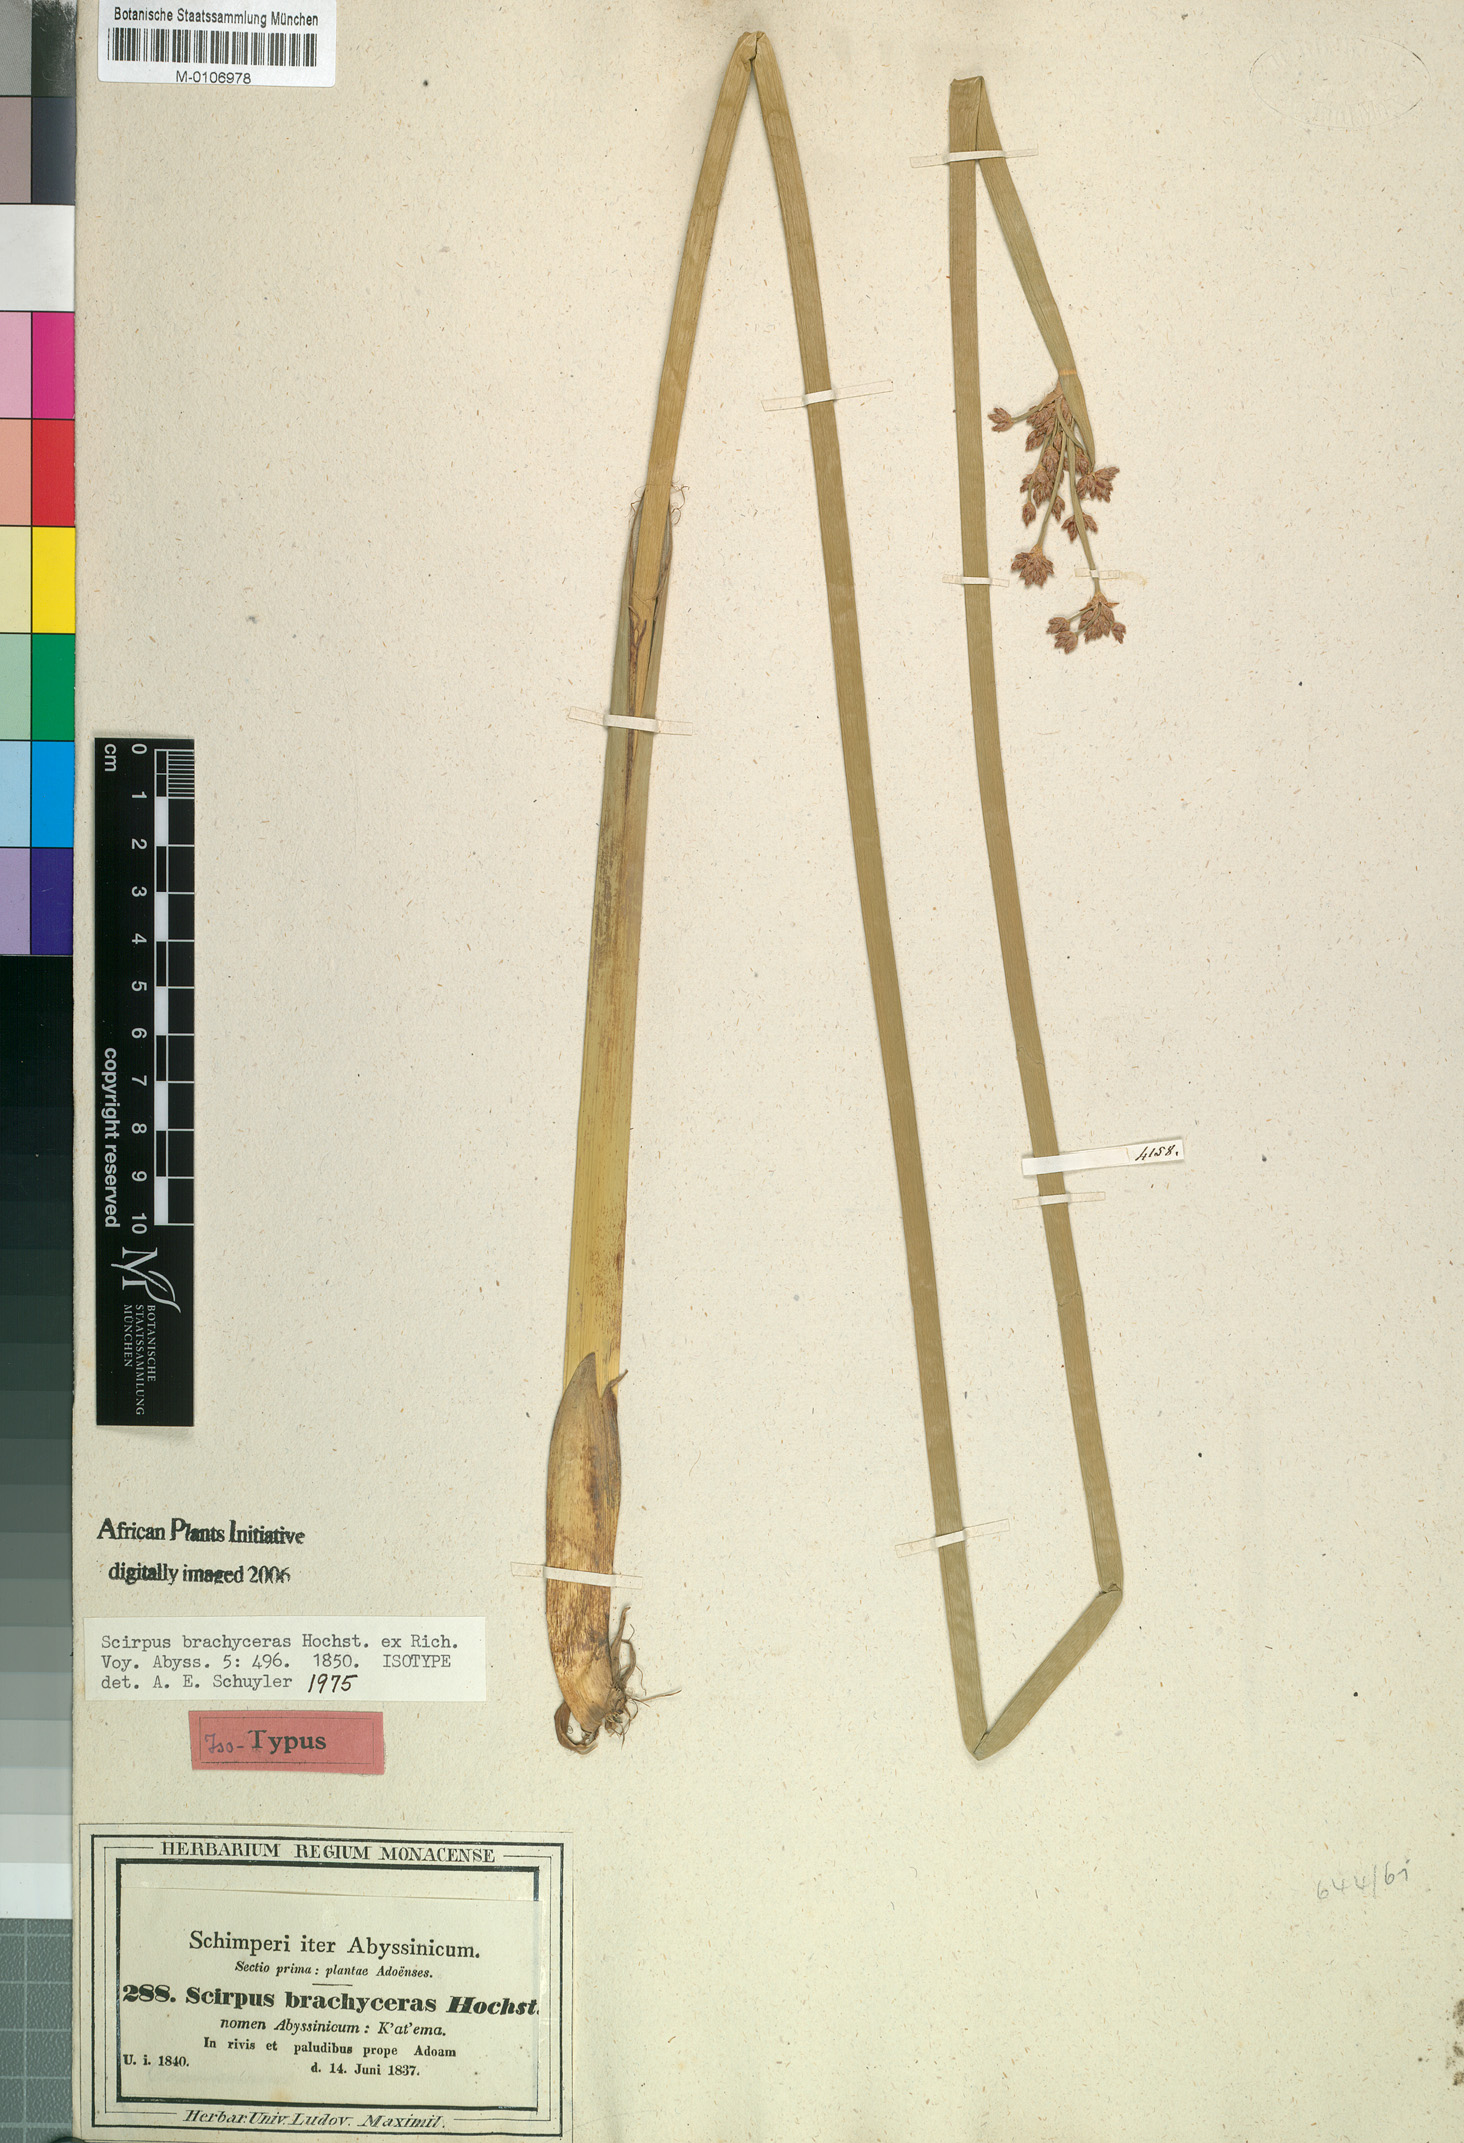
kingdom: Plantae
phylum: Tracheophyta
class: Liliopsida
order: Poales
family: Cyperaceae
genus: Schoenoplectiella
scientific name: Schoenoplectiella brachyceras
